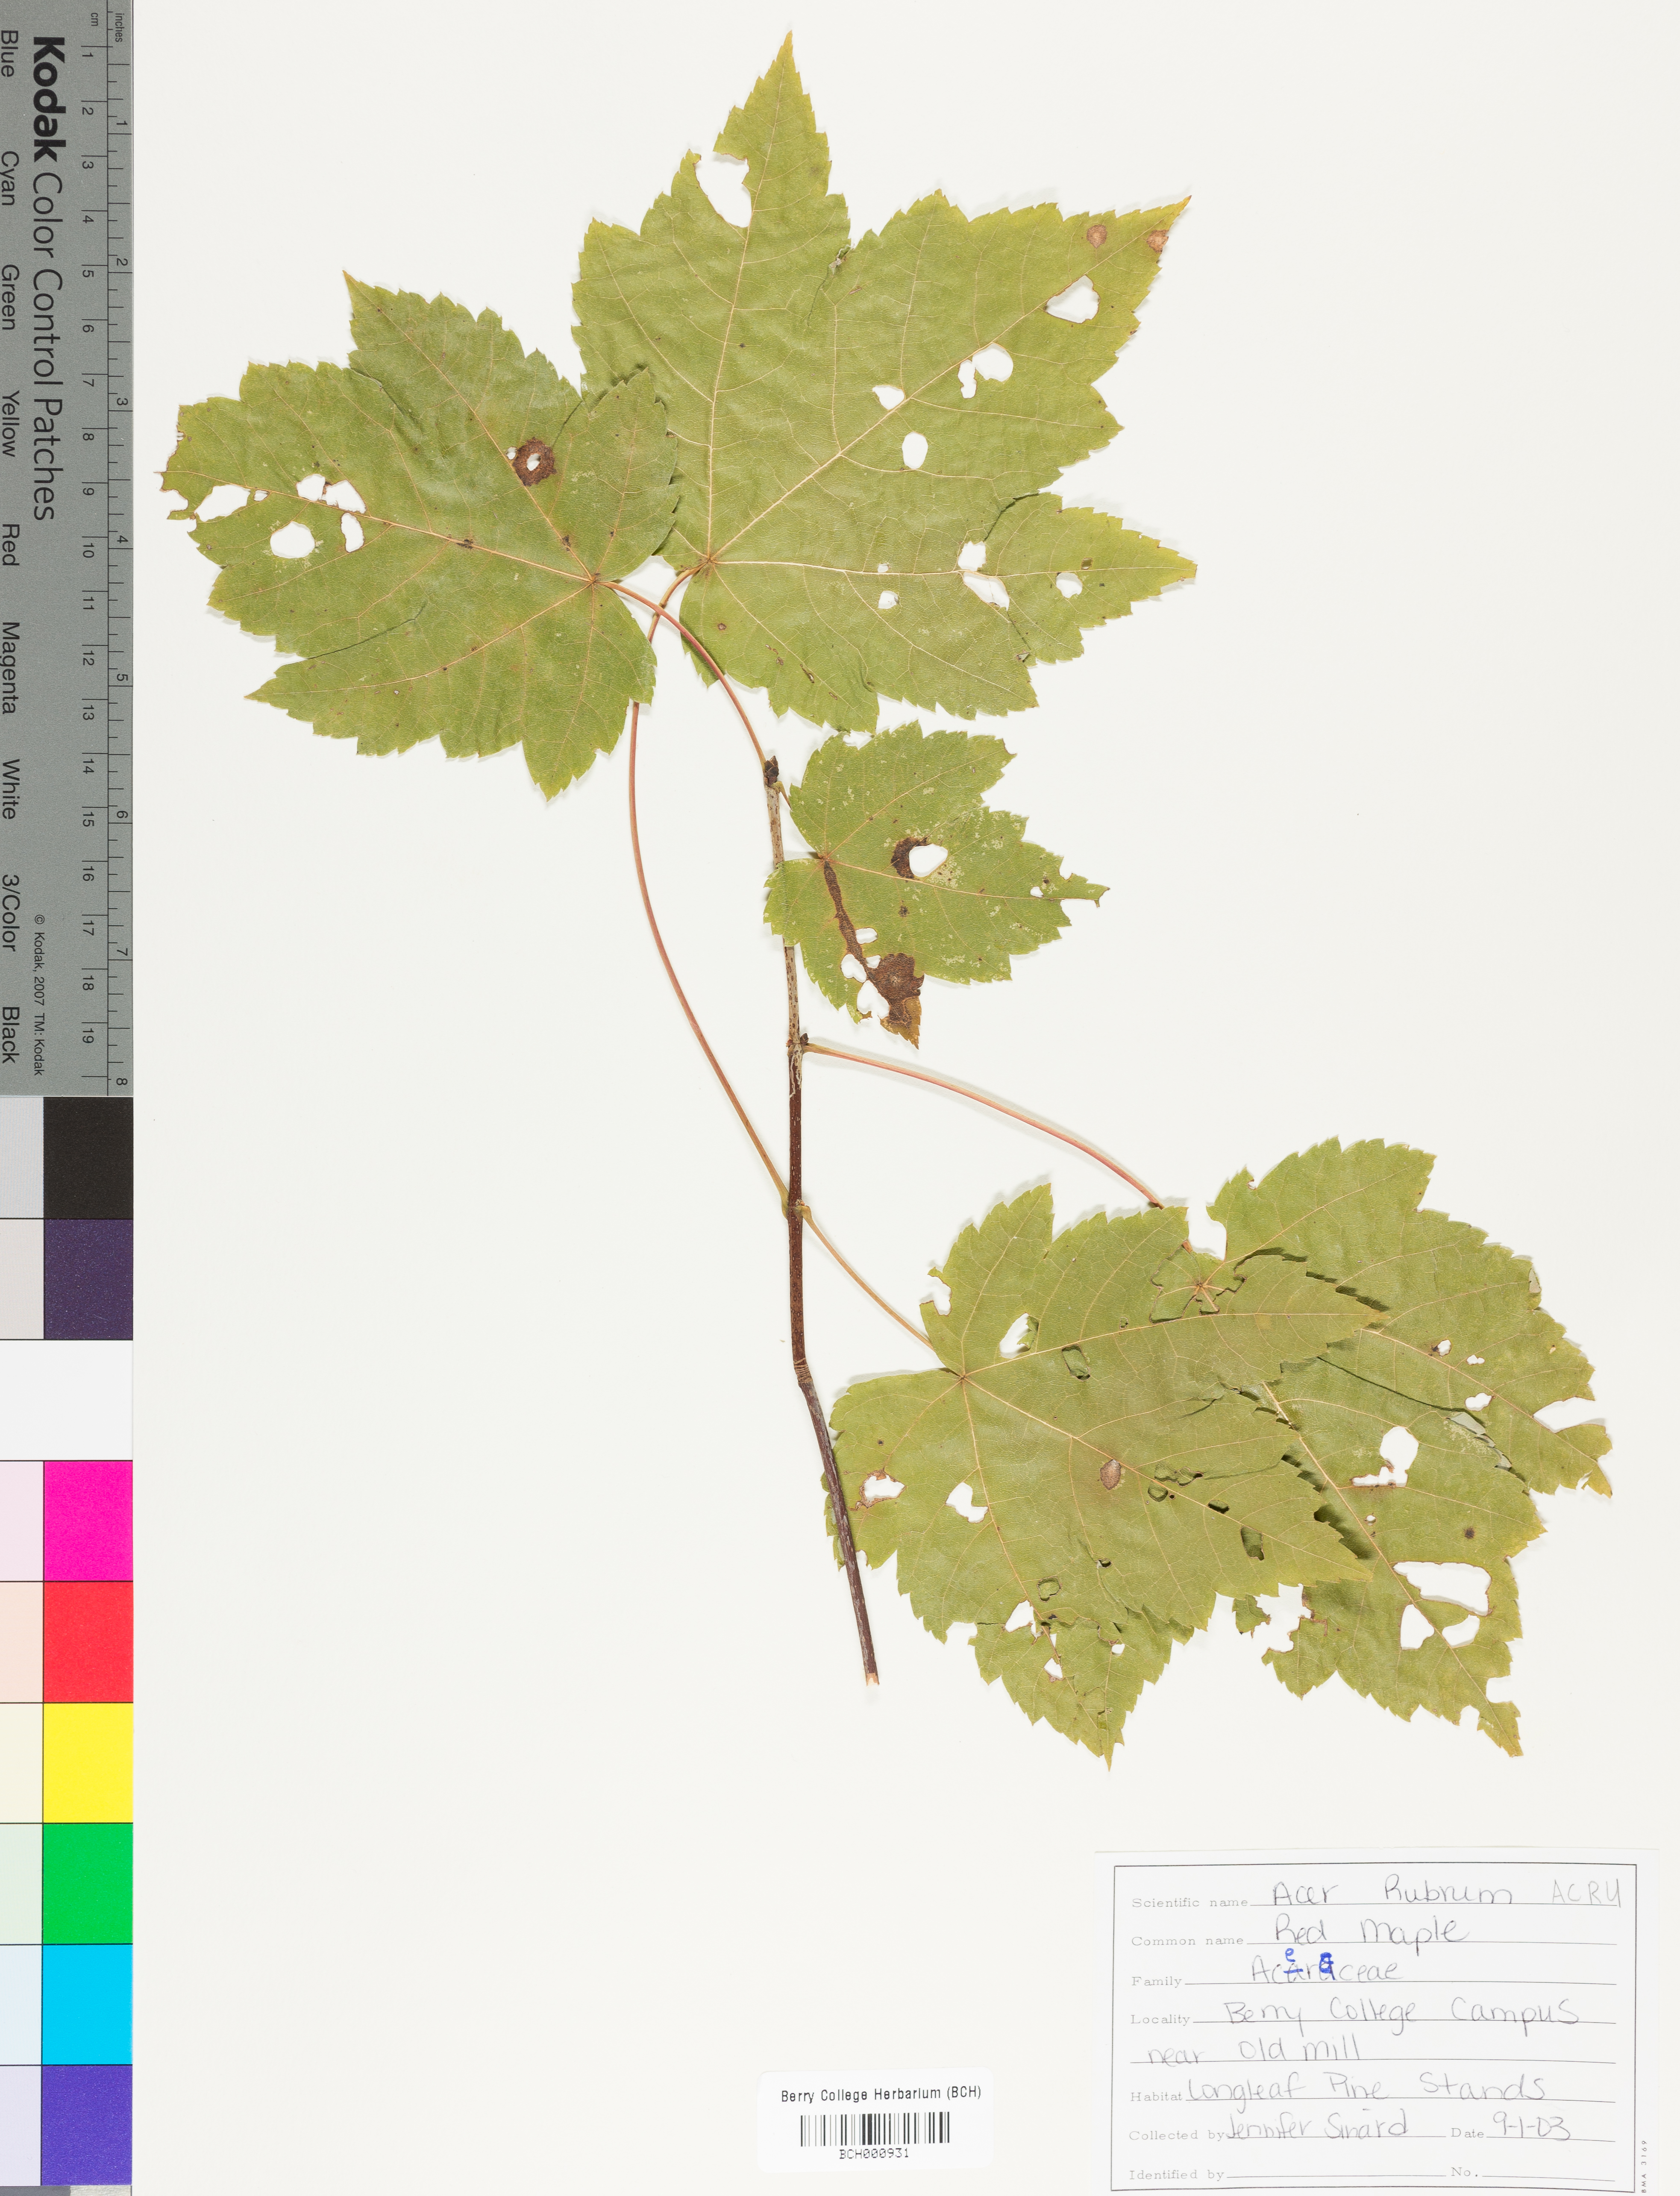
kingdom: Plantae
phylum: Tracheophyta
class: Magnoliopsida
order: Sapindales
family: Sapindaceae
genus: Acer
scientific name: Acer rubrum
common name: Red maple
